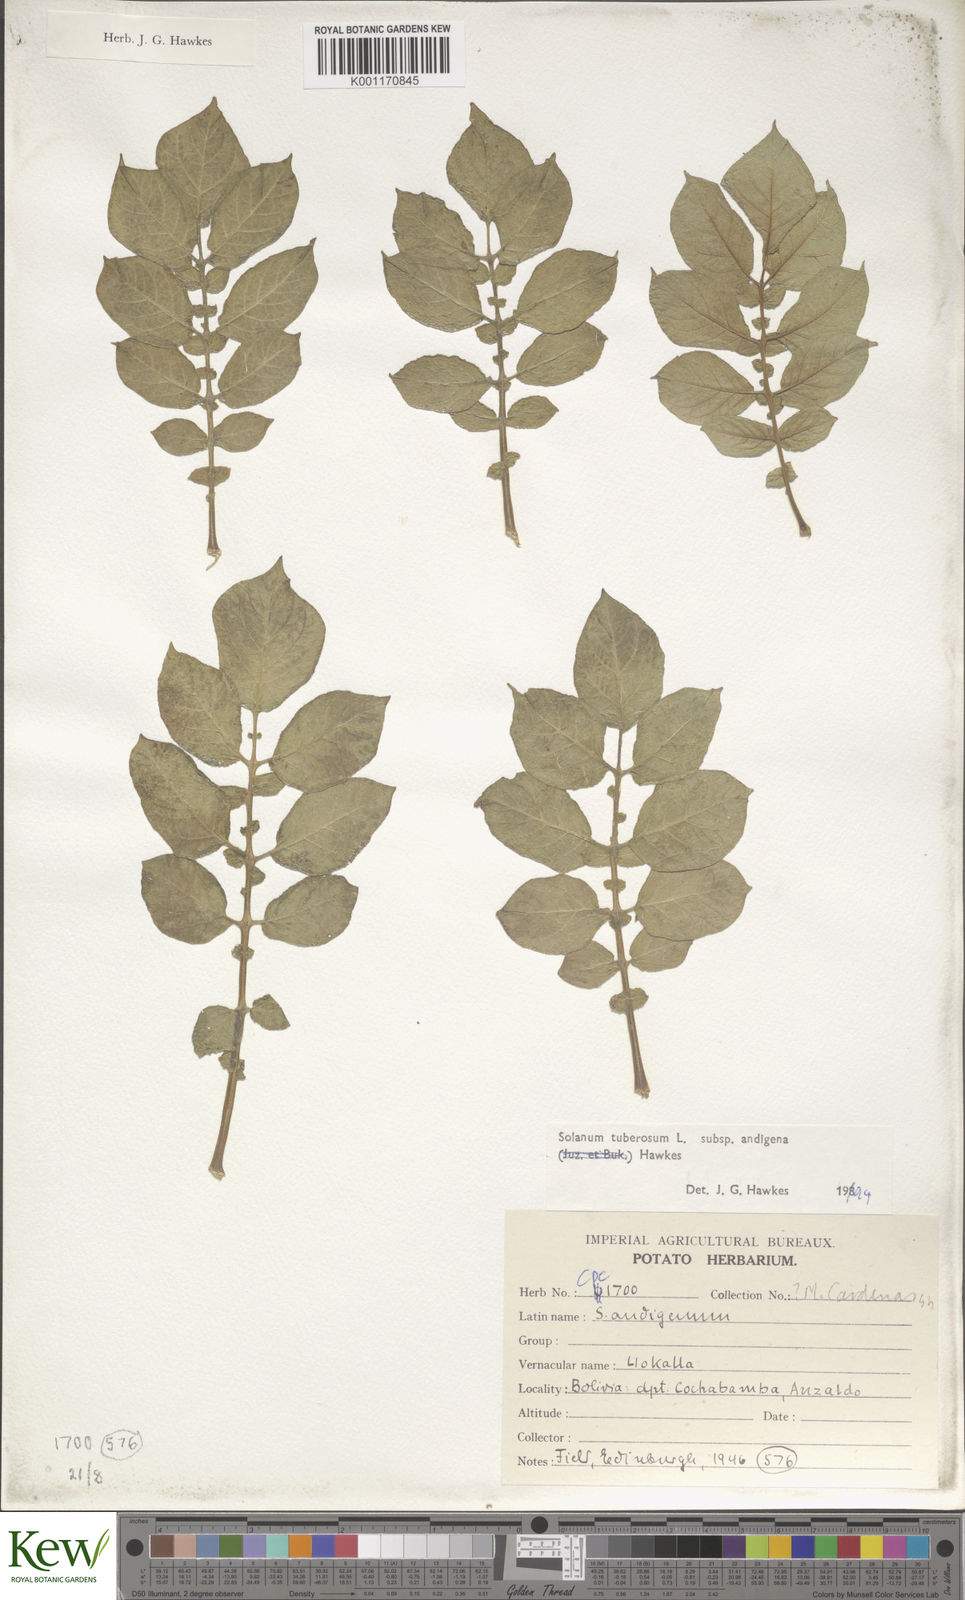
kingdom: Plantae
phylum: Tracheophyta
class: Magnoliopsida
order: Solanales
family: Solanaceae
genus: Solanum
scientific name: Solanum tuberosum
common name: Potato
